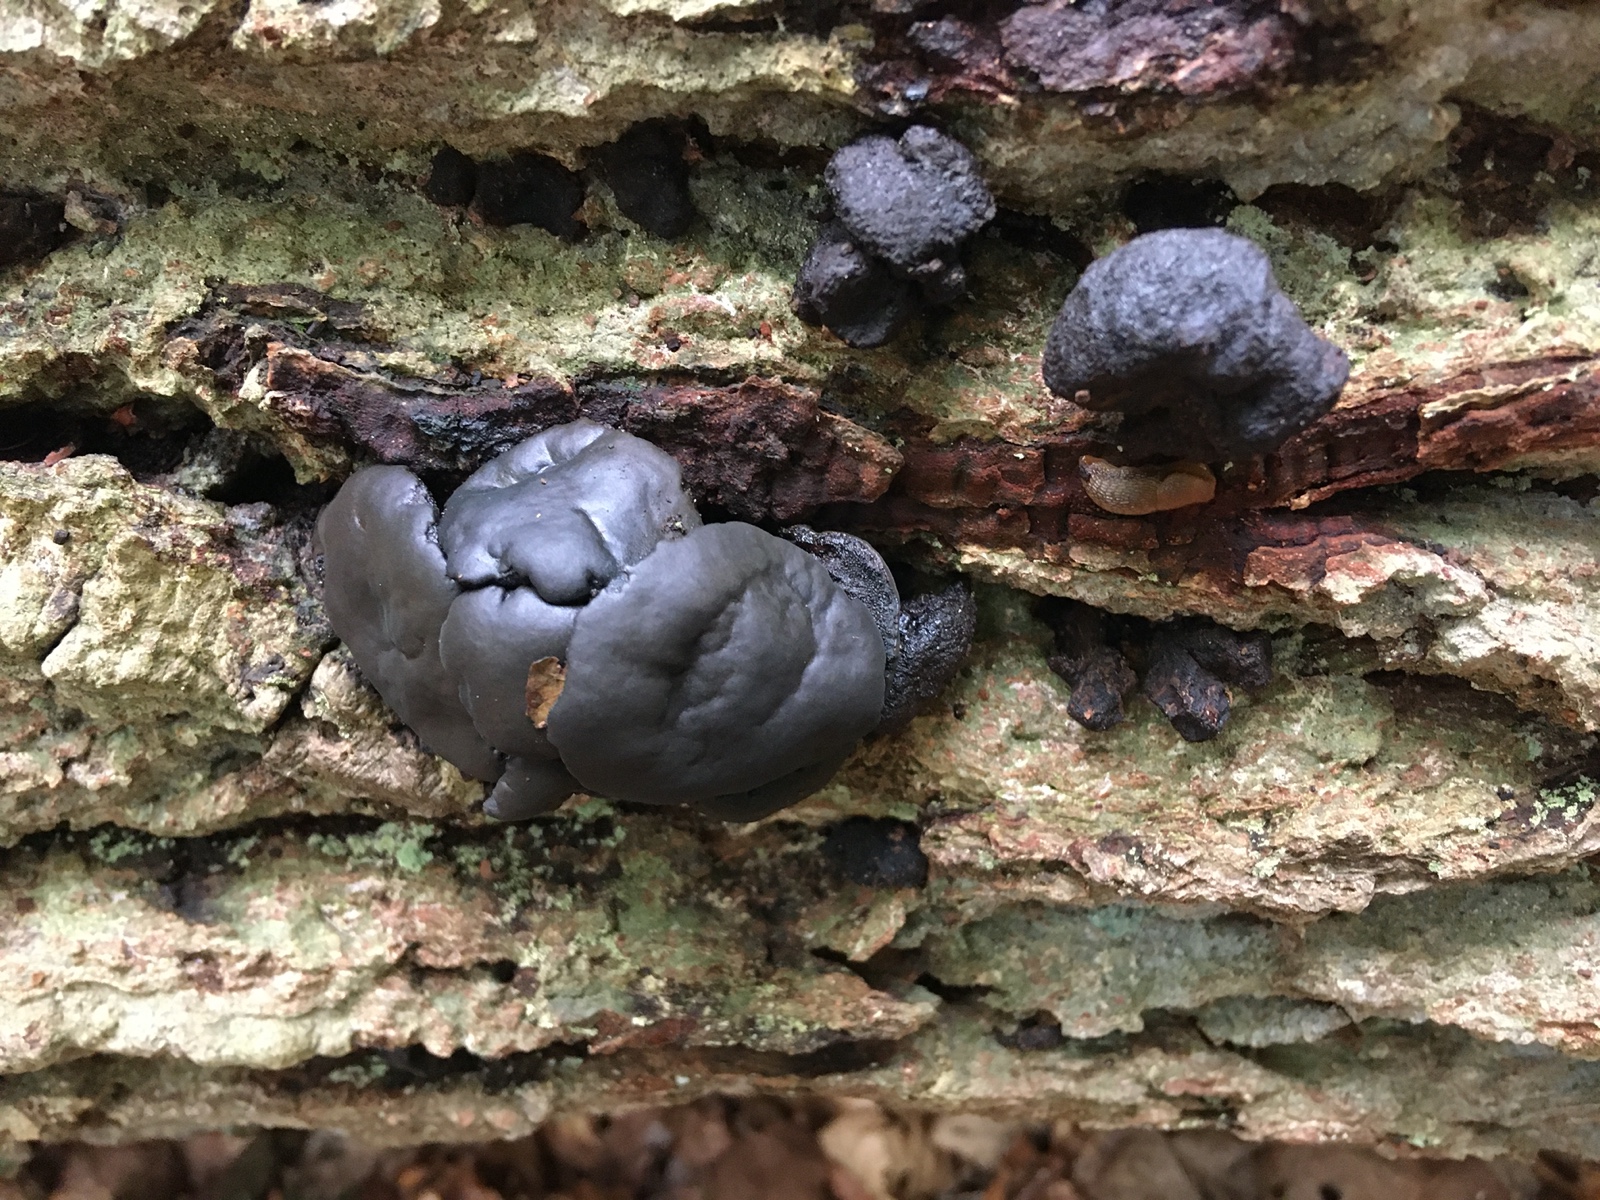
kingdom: Fungi
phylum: Ascomycota
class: Leotiomycetes
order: Phacidiales
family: Phacidiaceae
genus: Bulgaria
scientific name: Bulgaria inquinans
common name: afsmittende topsvamp
